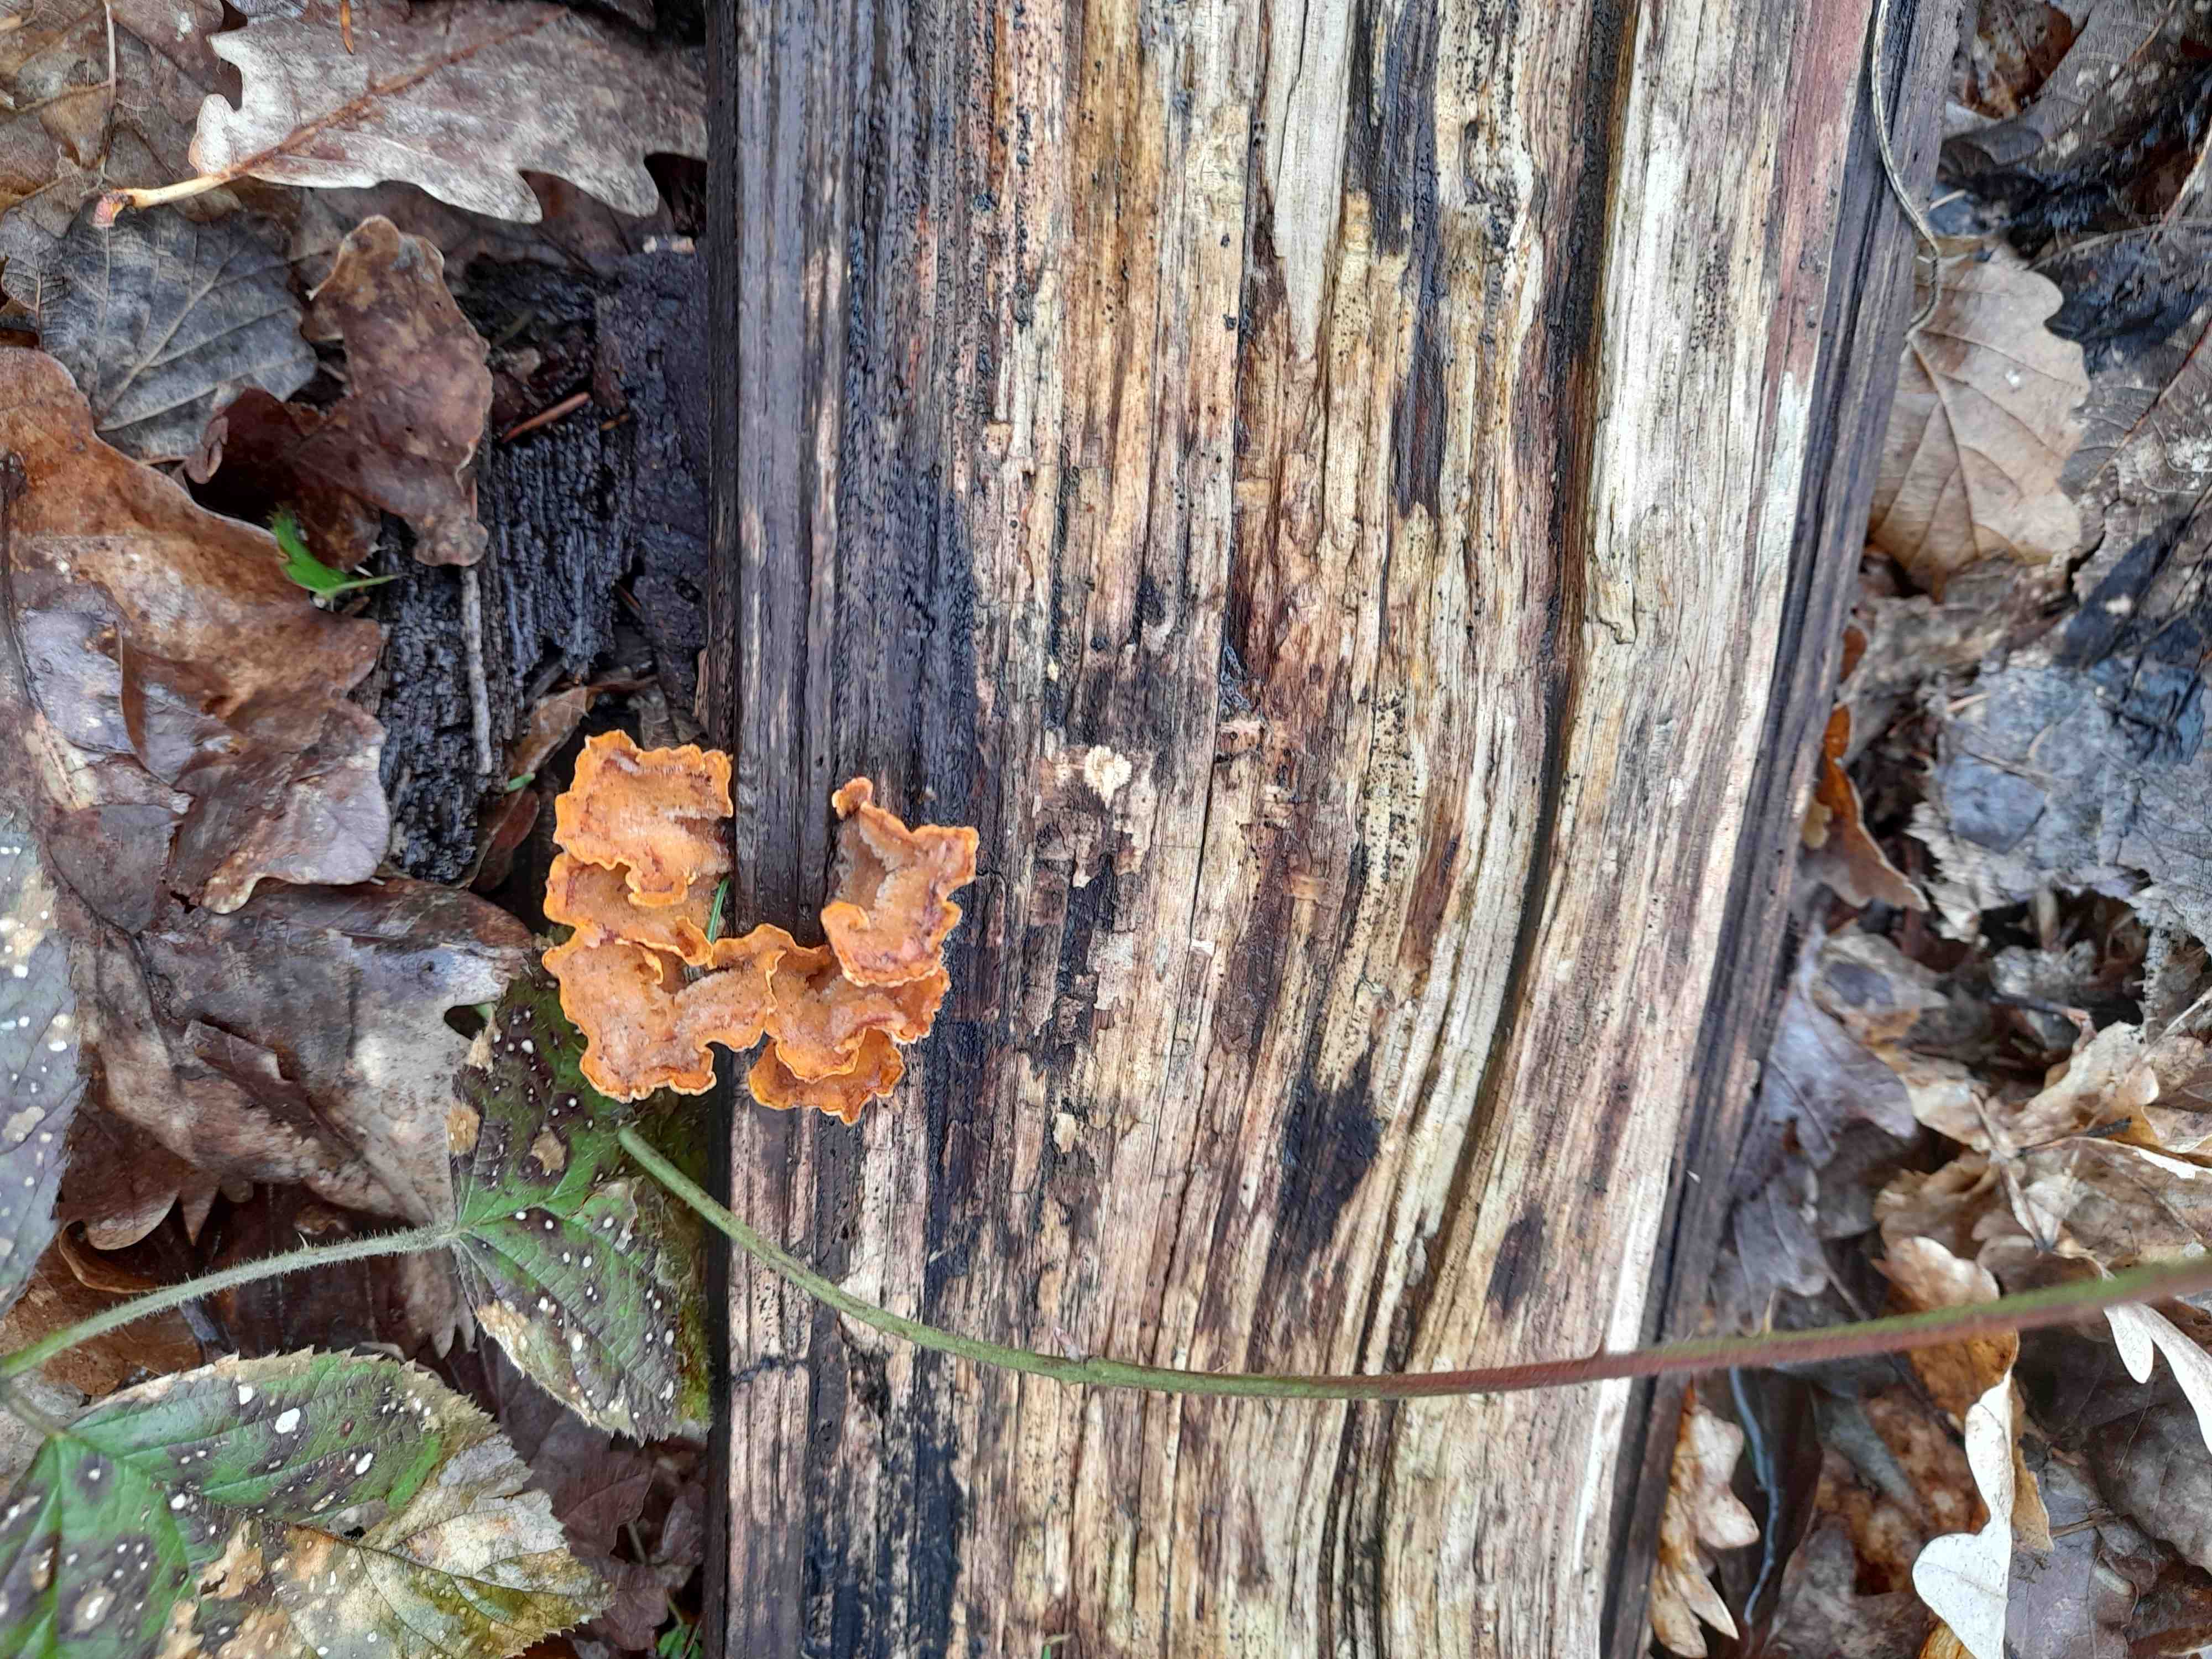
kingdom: Fungi
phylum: Basidiomycota
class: Agaricomycetes
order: Russulales
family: Stereaceae
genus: Stereum
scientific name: Stereum hirsutum
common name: håret lædersvamp
